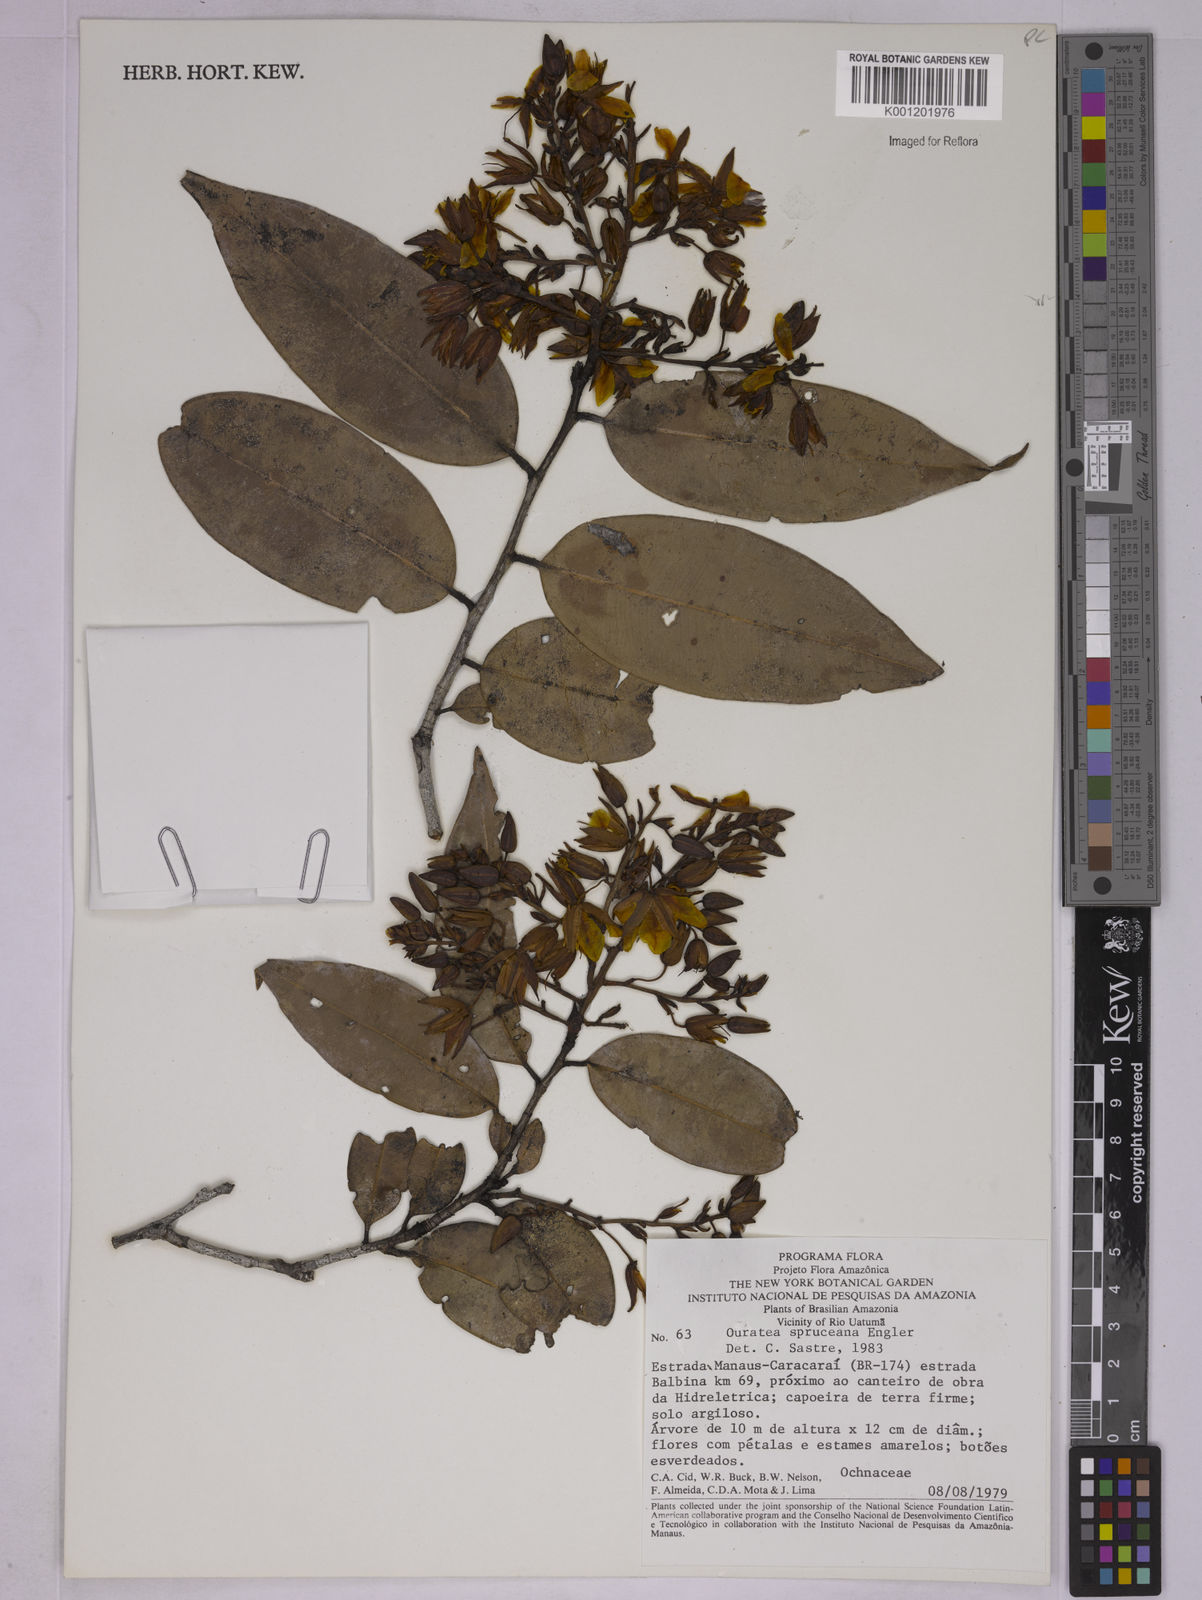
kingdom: Plantae
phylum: Tracheophyta
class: Magnoliopsida
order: Malpighiales
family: Ochnaceae
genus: Ouratea
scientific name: Ouratea spruceana
